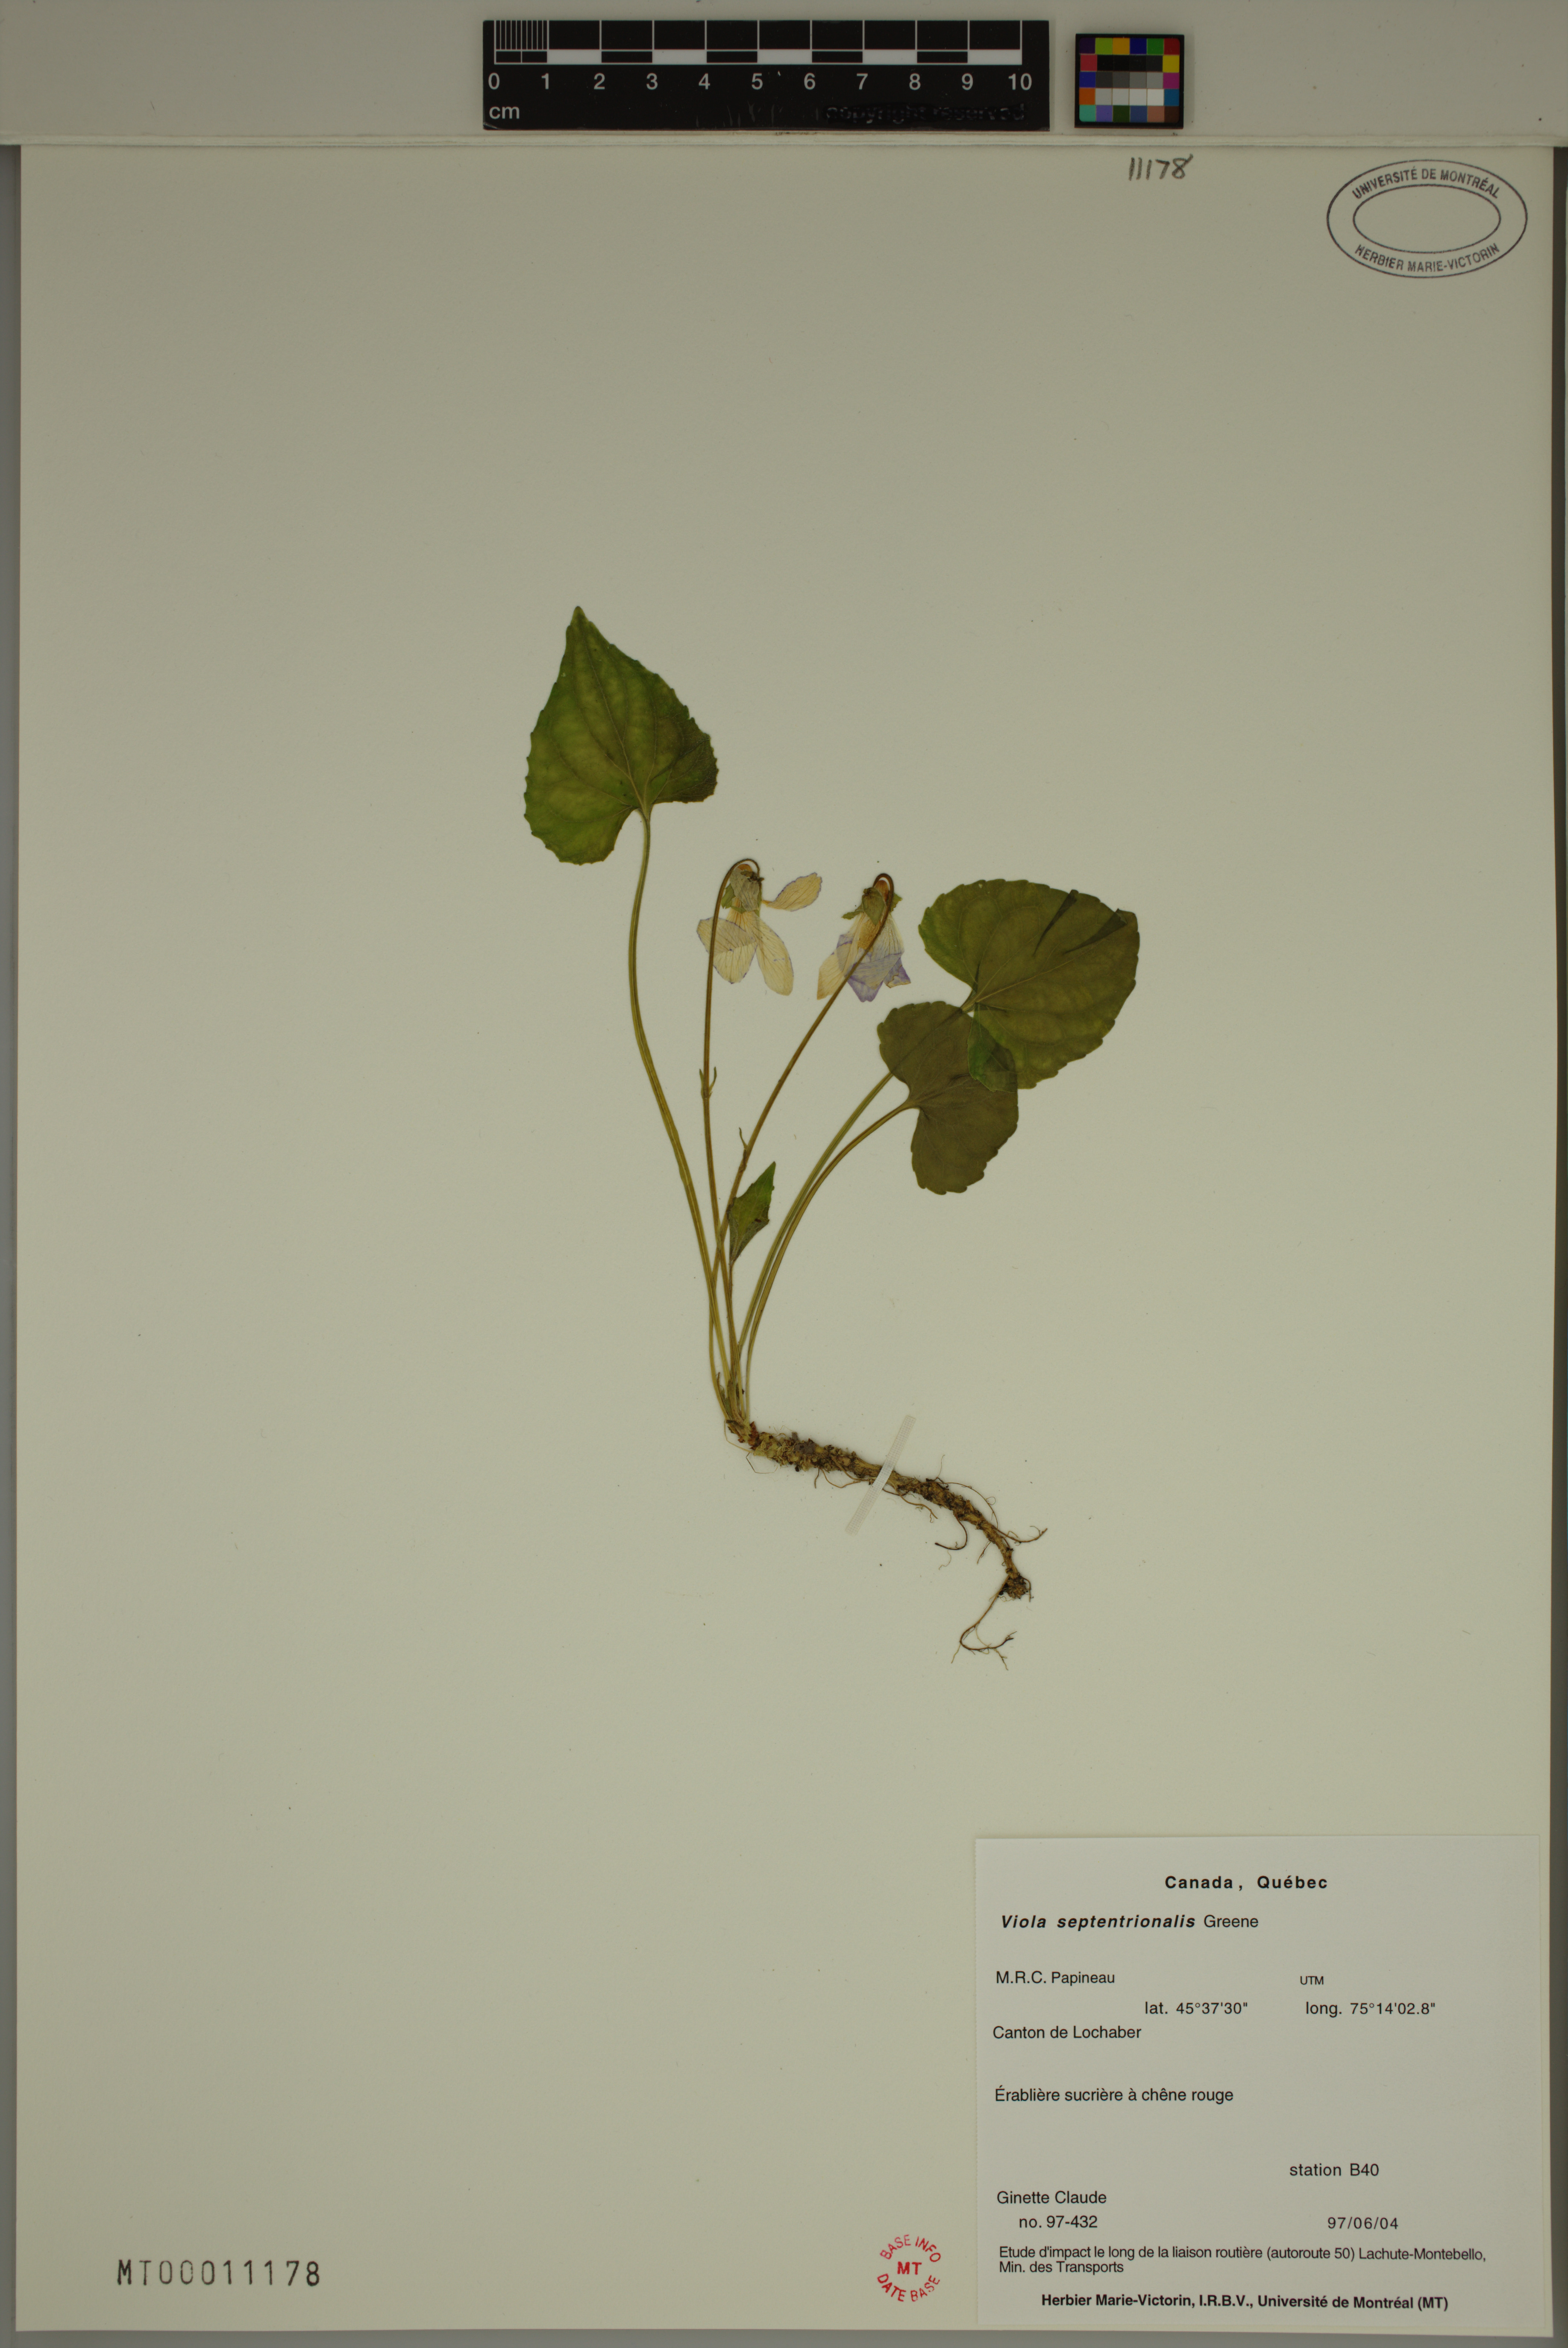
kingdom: Plantae
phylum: Tracheophyta
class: Magnoliopsida
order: Malpighiales
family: Violaceae
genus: Viola
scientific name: Viola sororia
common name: Dooryard violet
